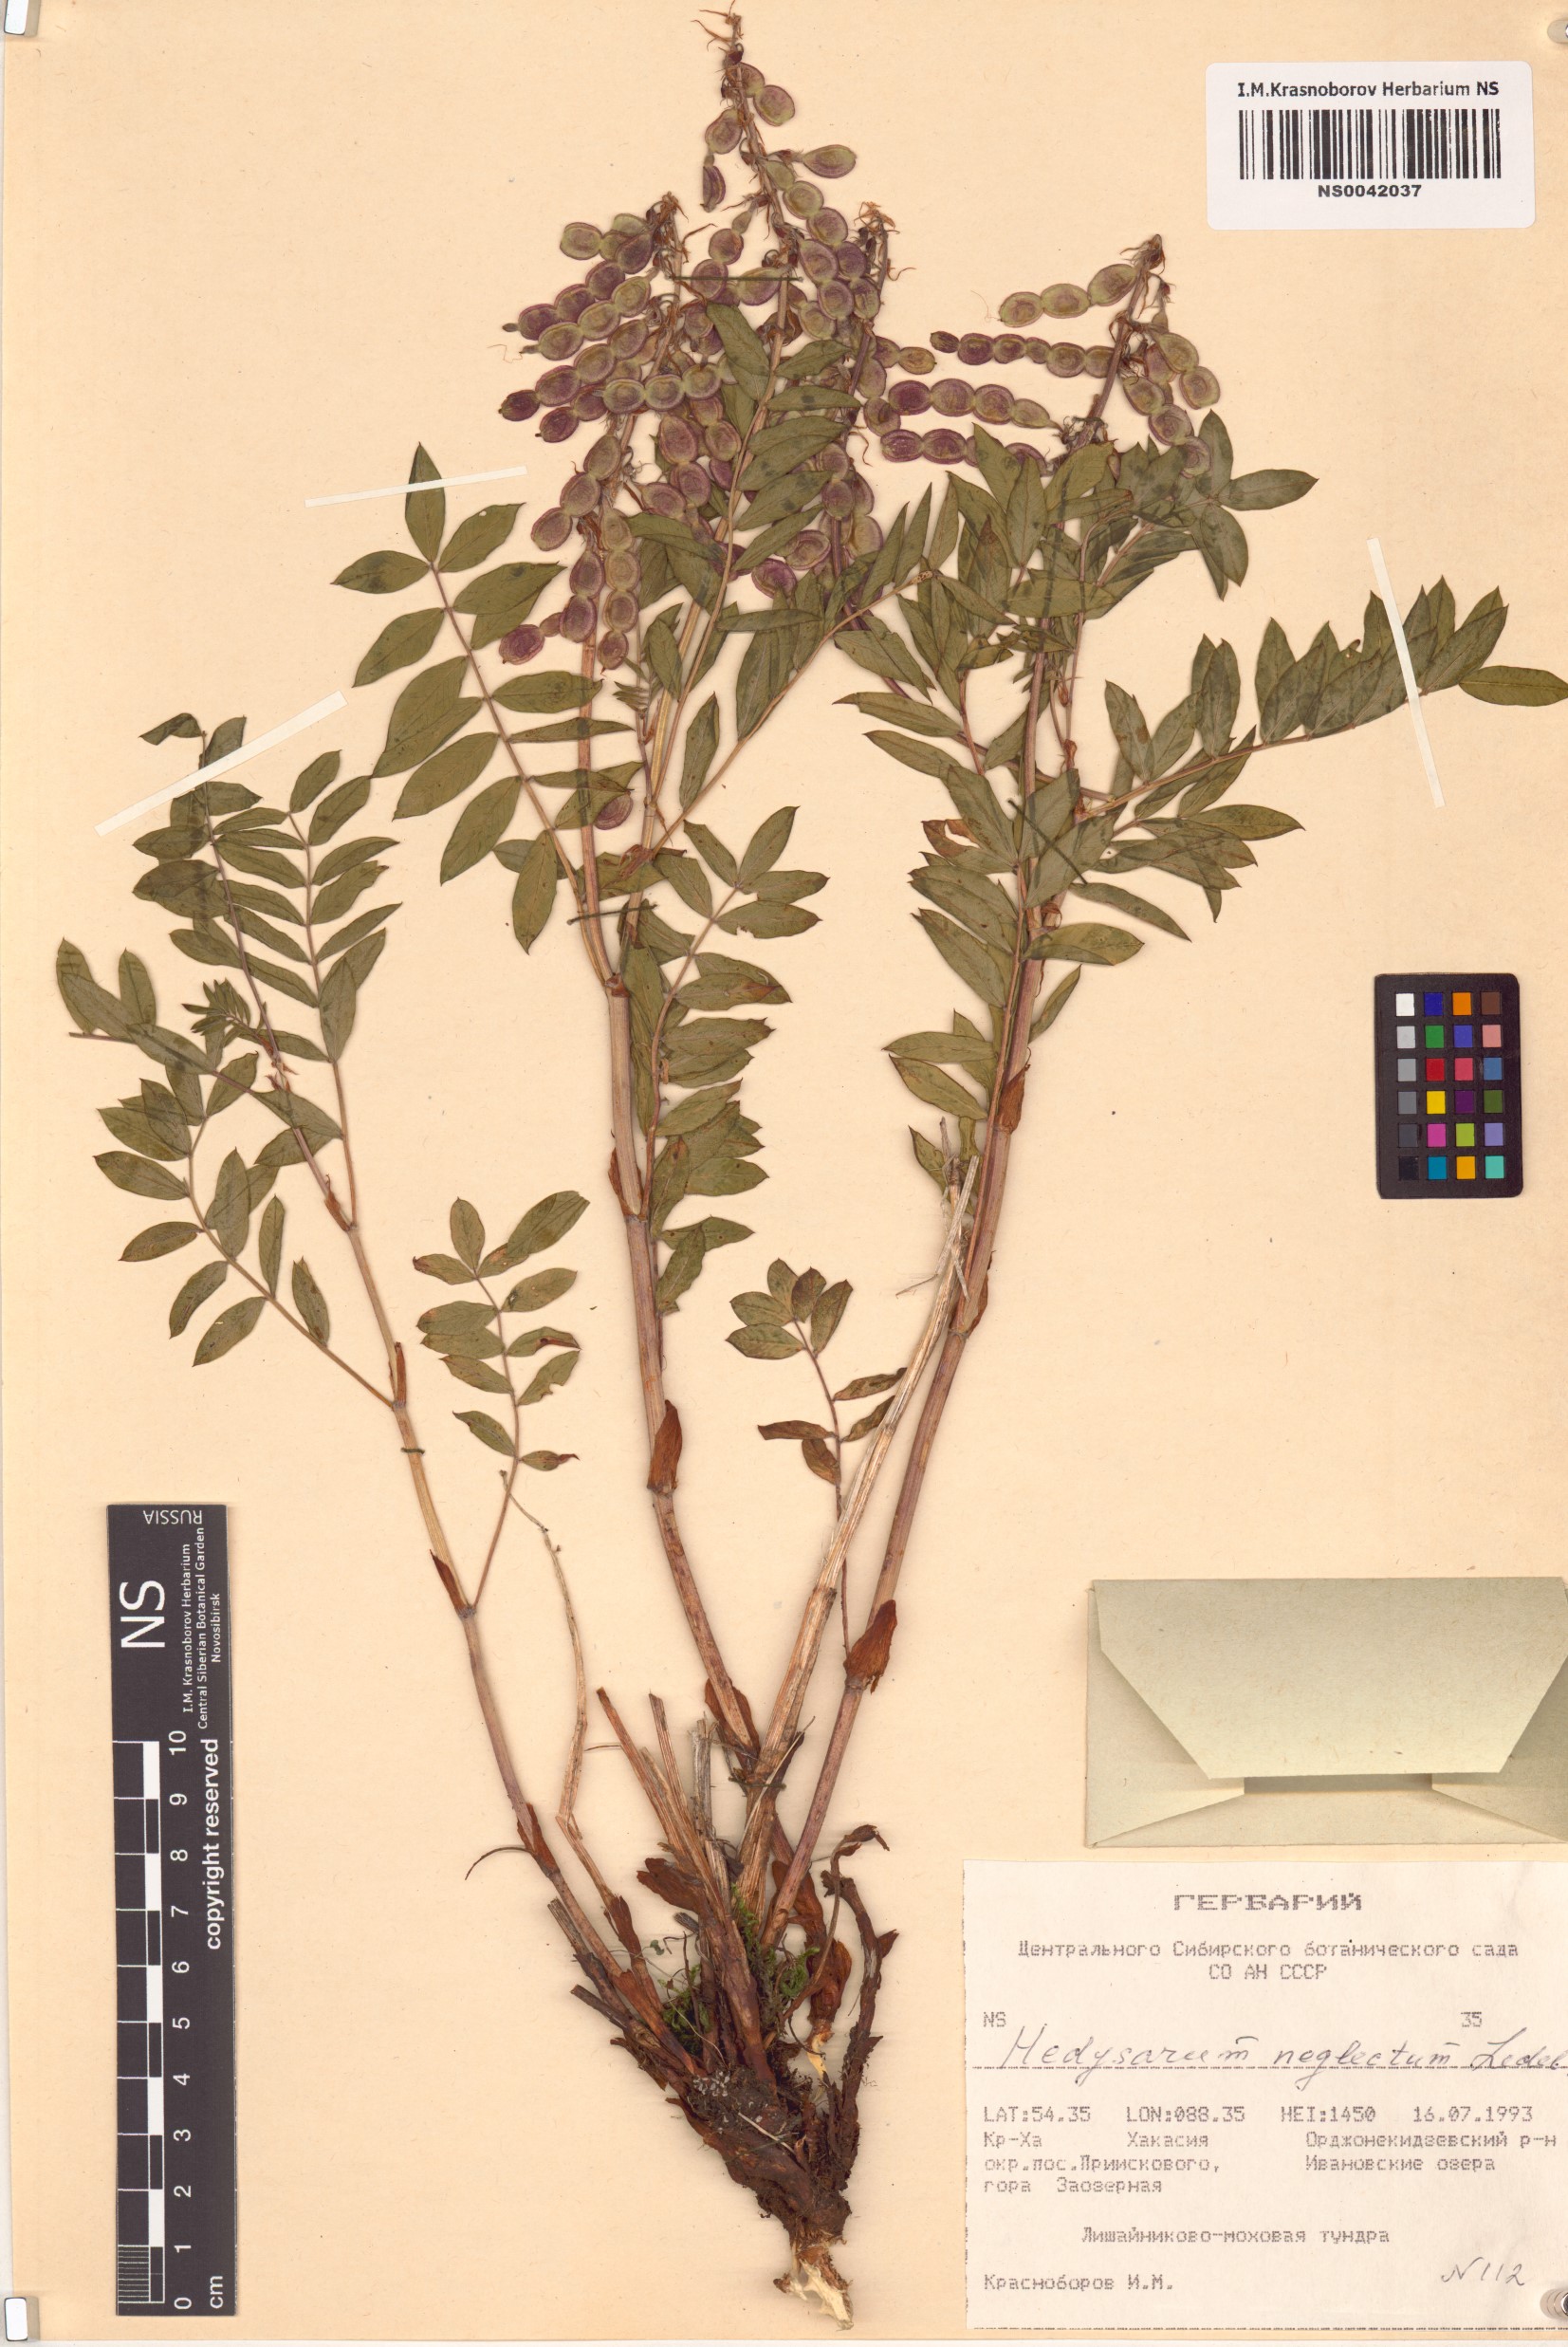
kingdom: Plantae
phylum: Tracheophyta
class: Magnoliopsida
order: Fabales
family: Fabaceae
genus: Hedysarum
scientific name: Hedysarum neglectum
